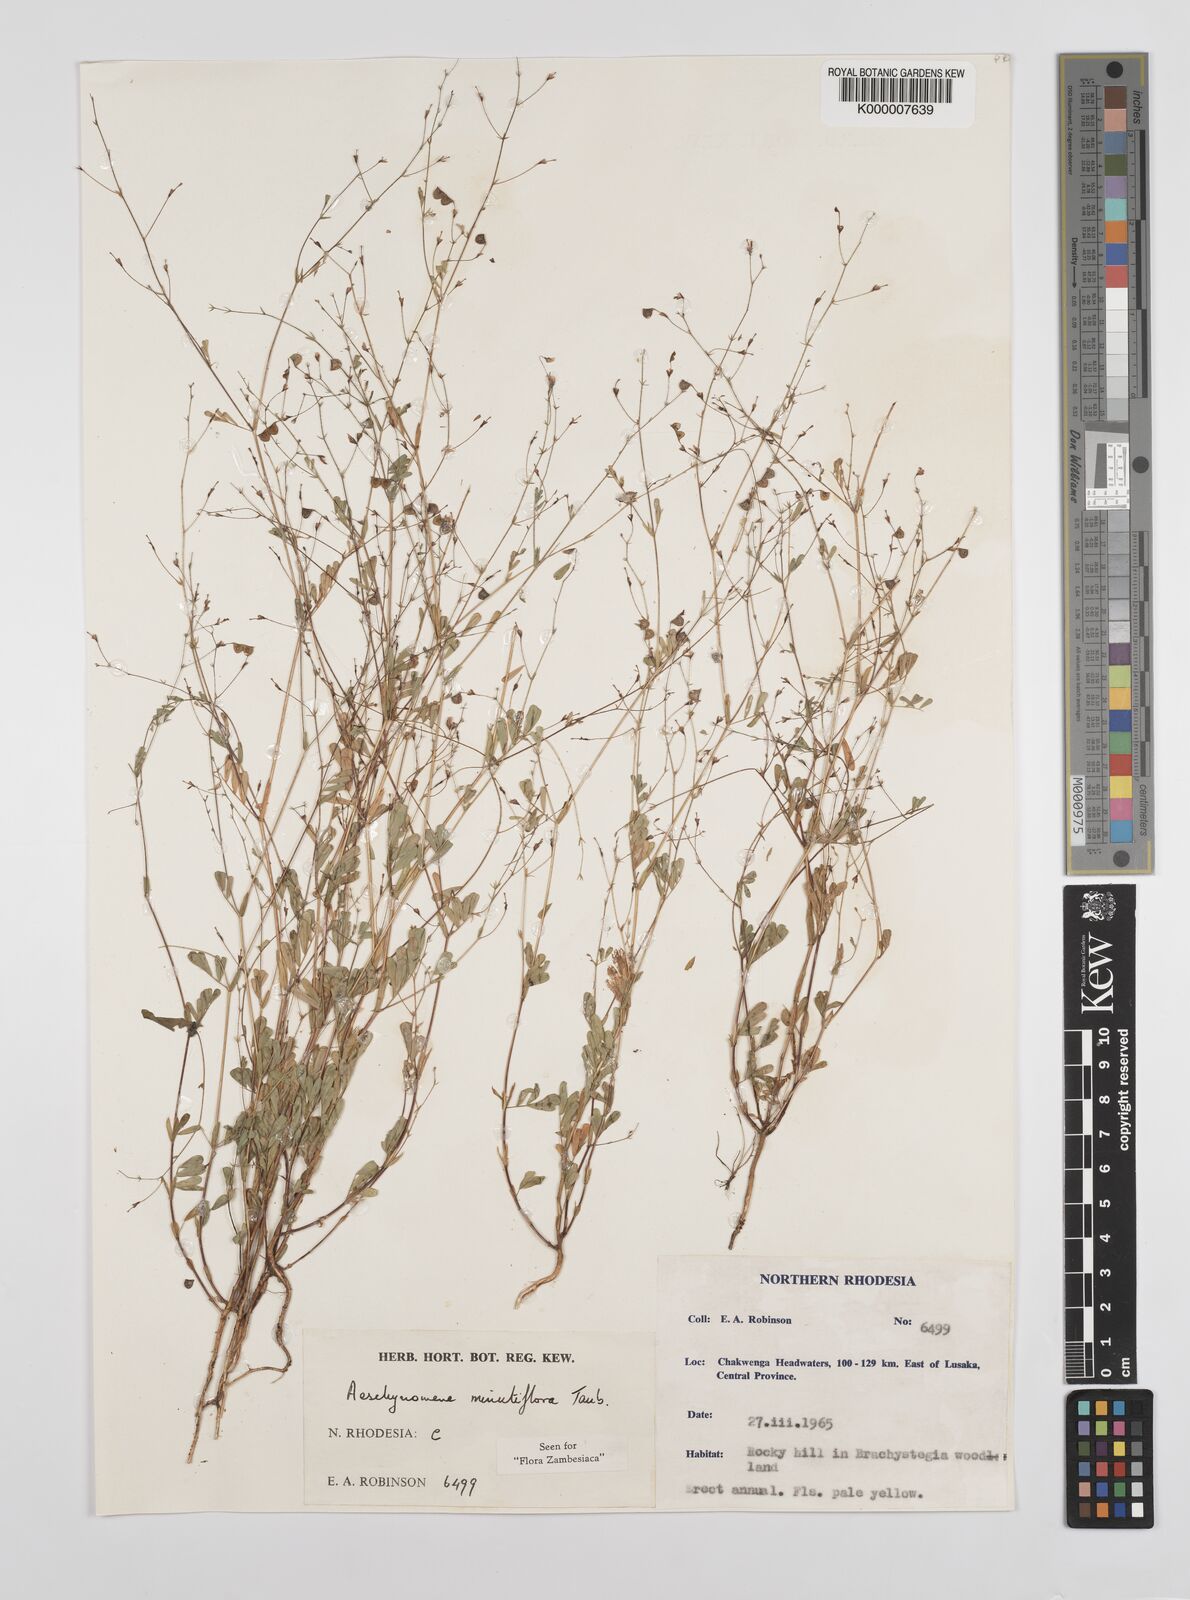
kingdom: Plantae
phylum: Tracheophyta
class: Magnoliopsida
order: Fabales
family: Fabaceae
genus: Aeschynomene
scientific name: Aeschynomene minutiflora
